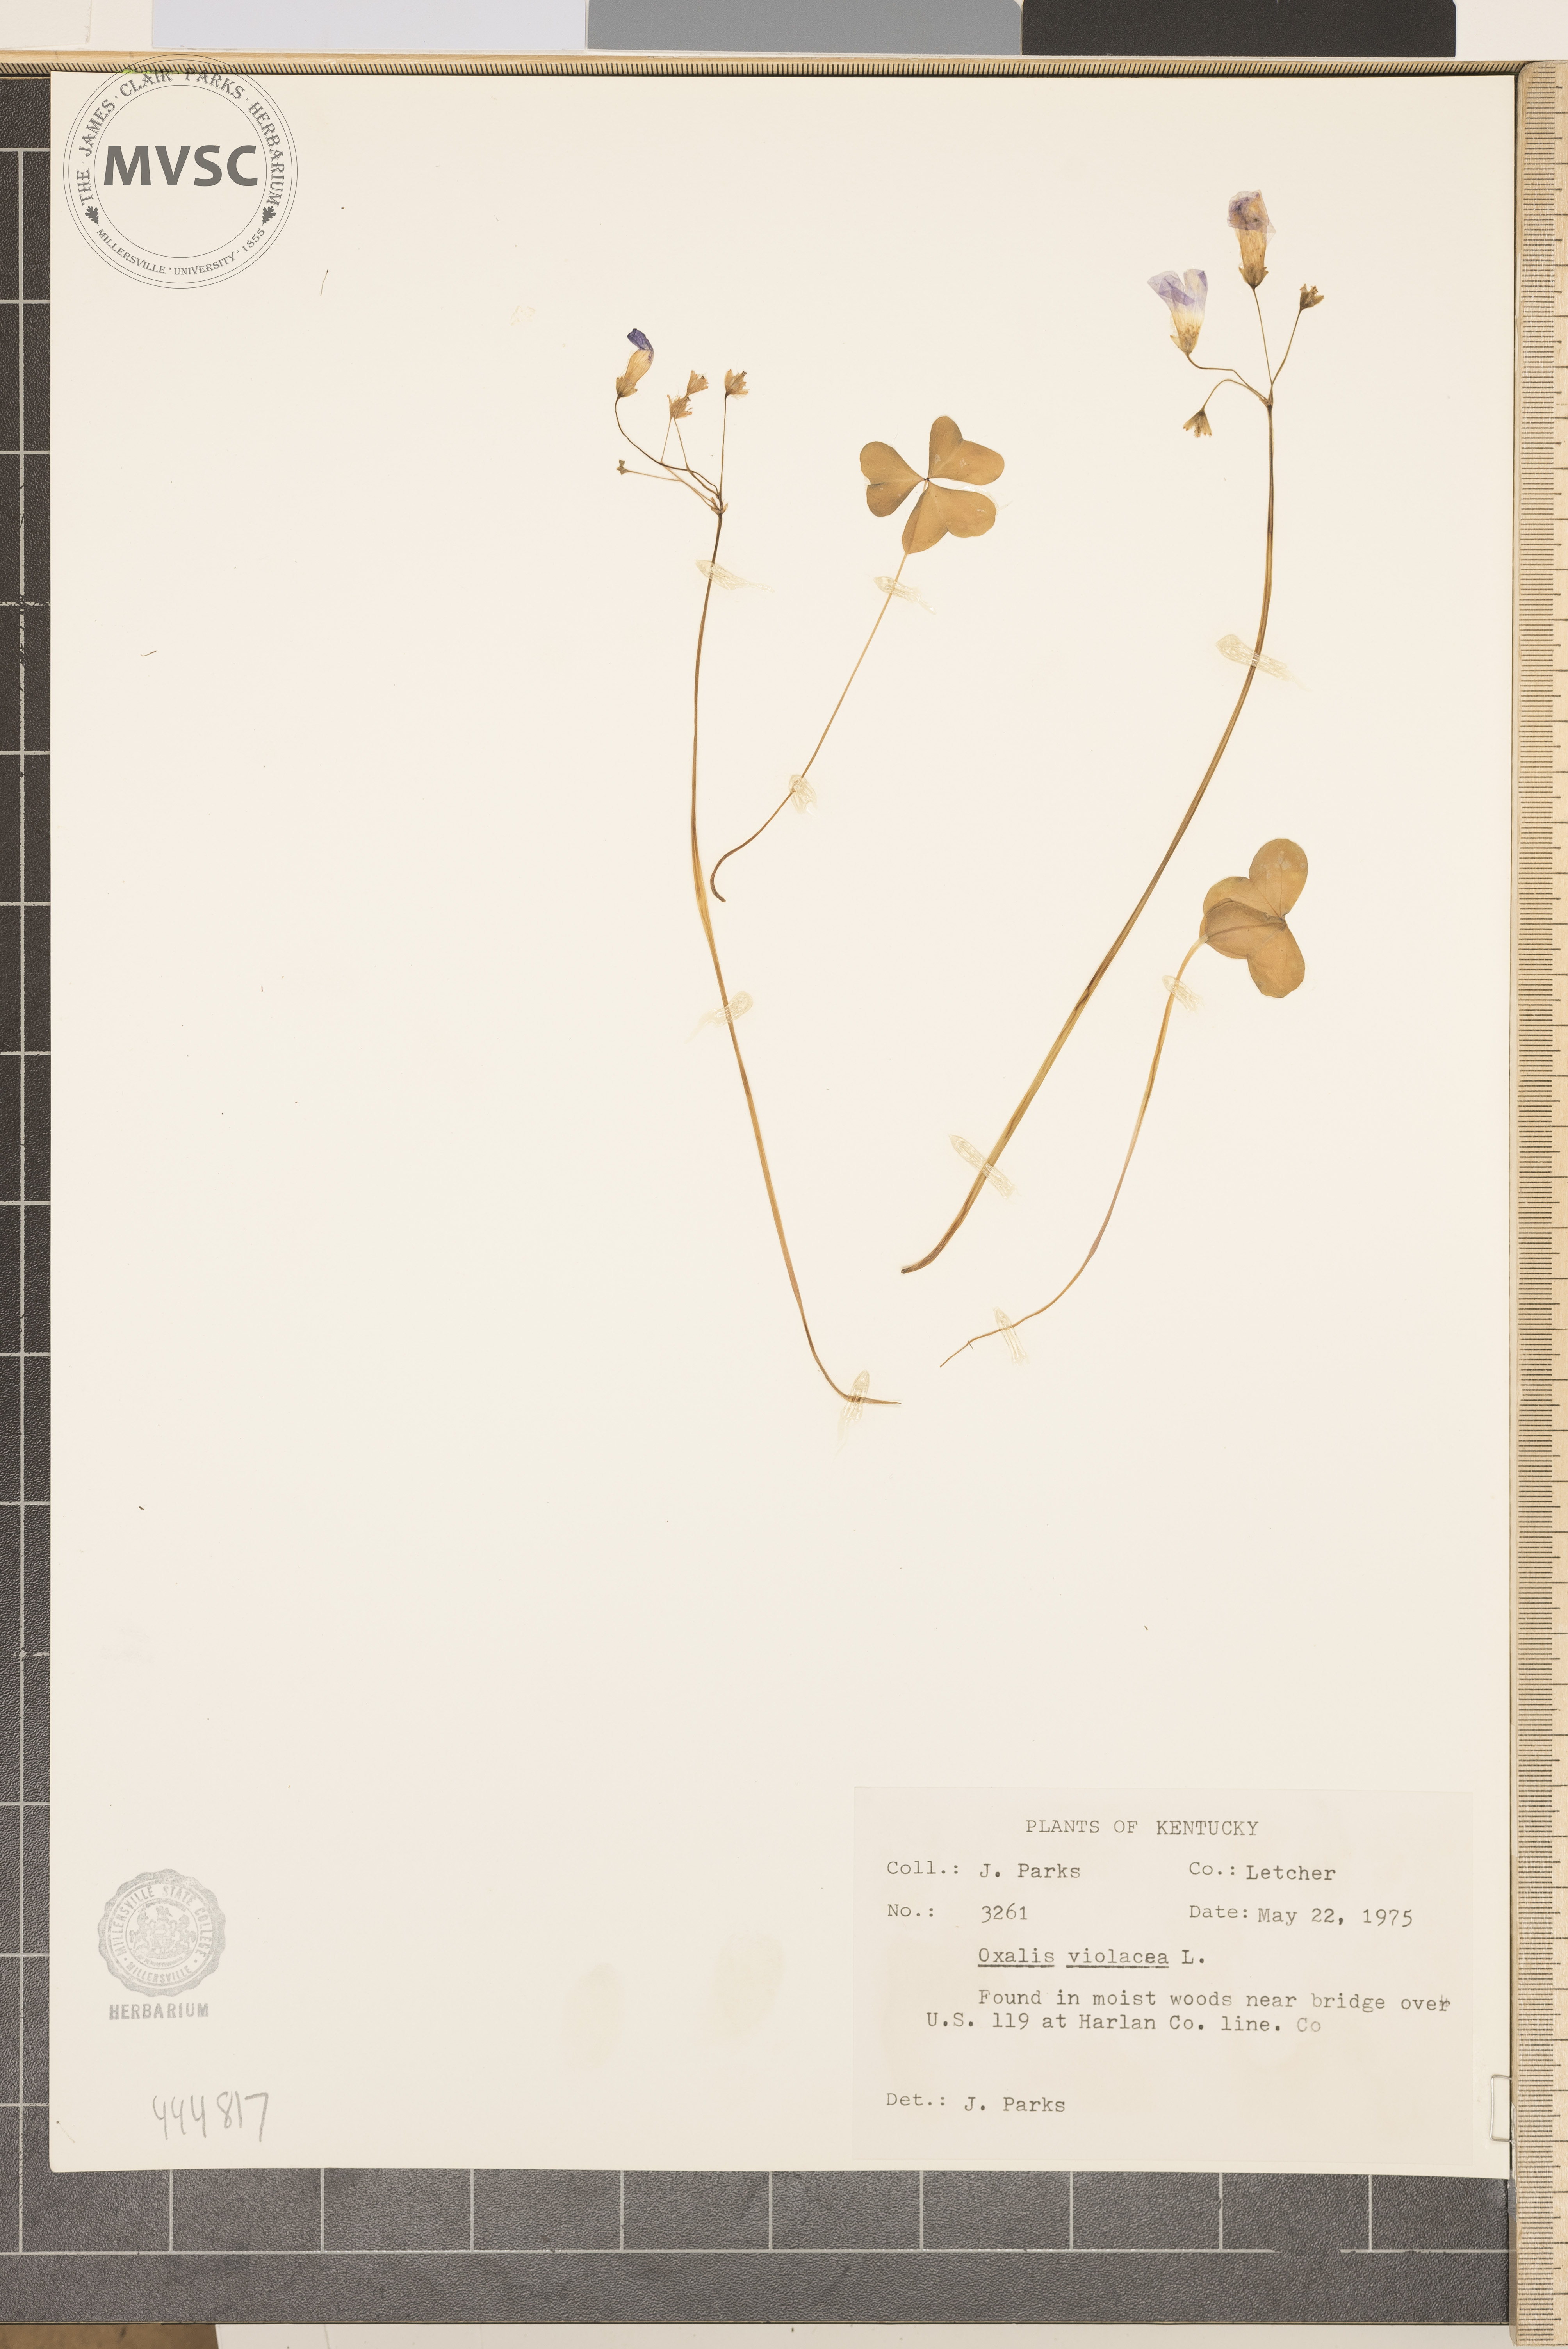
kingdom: Plantae
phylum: Tracheophyta
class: Magnoliopsida
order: Oxalidales
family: Oxalidaceae
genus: Oxalis
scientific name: Oxalis violacea
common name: Violet wood-sorrel
